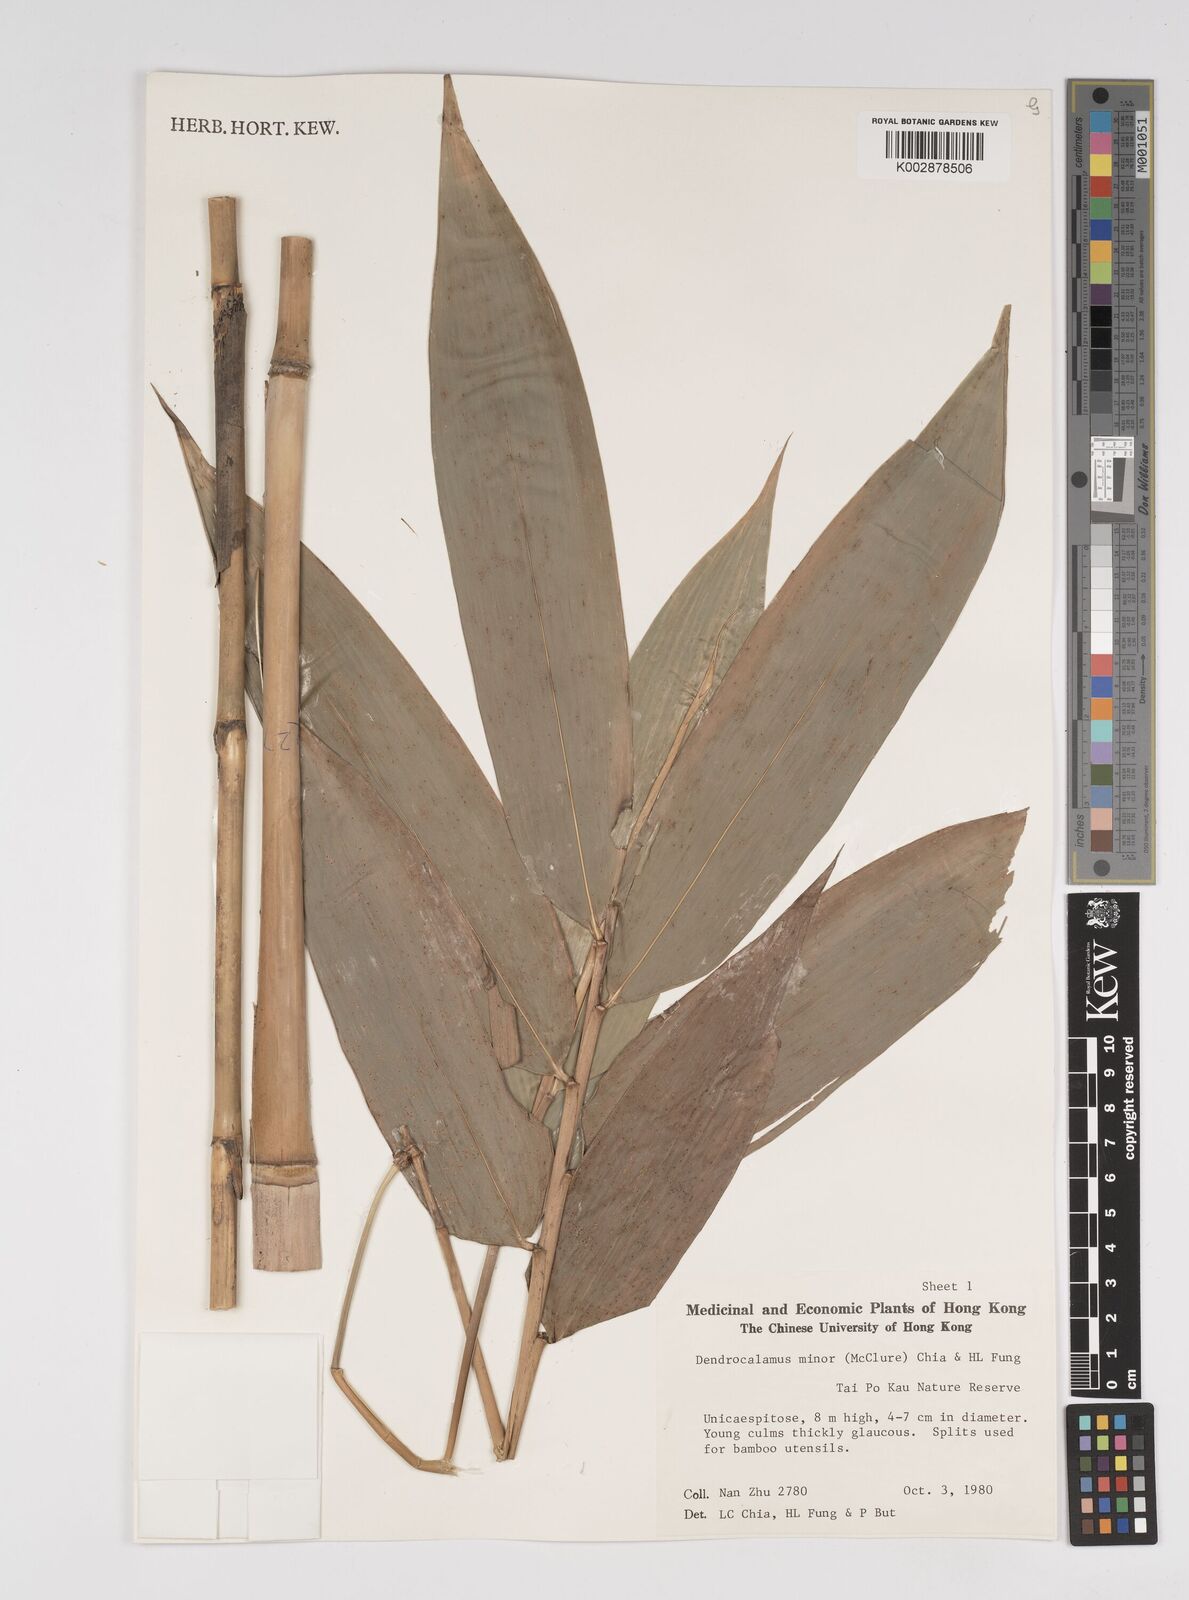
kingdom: Plantae
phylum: Tracheophyta
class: Liliopsida
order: Poales
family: Poaceae
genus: Dendrocalamus
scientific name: Dendrocalamus minor
